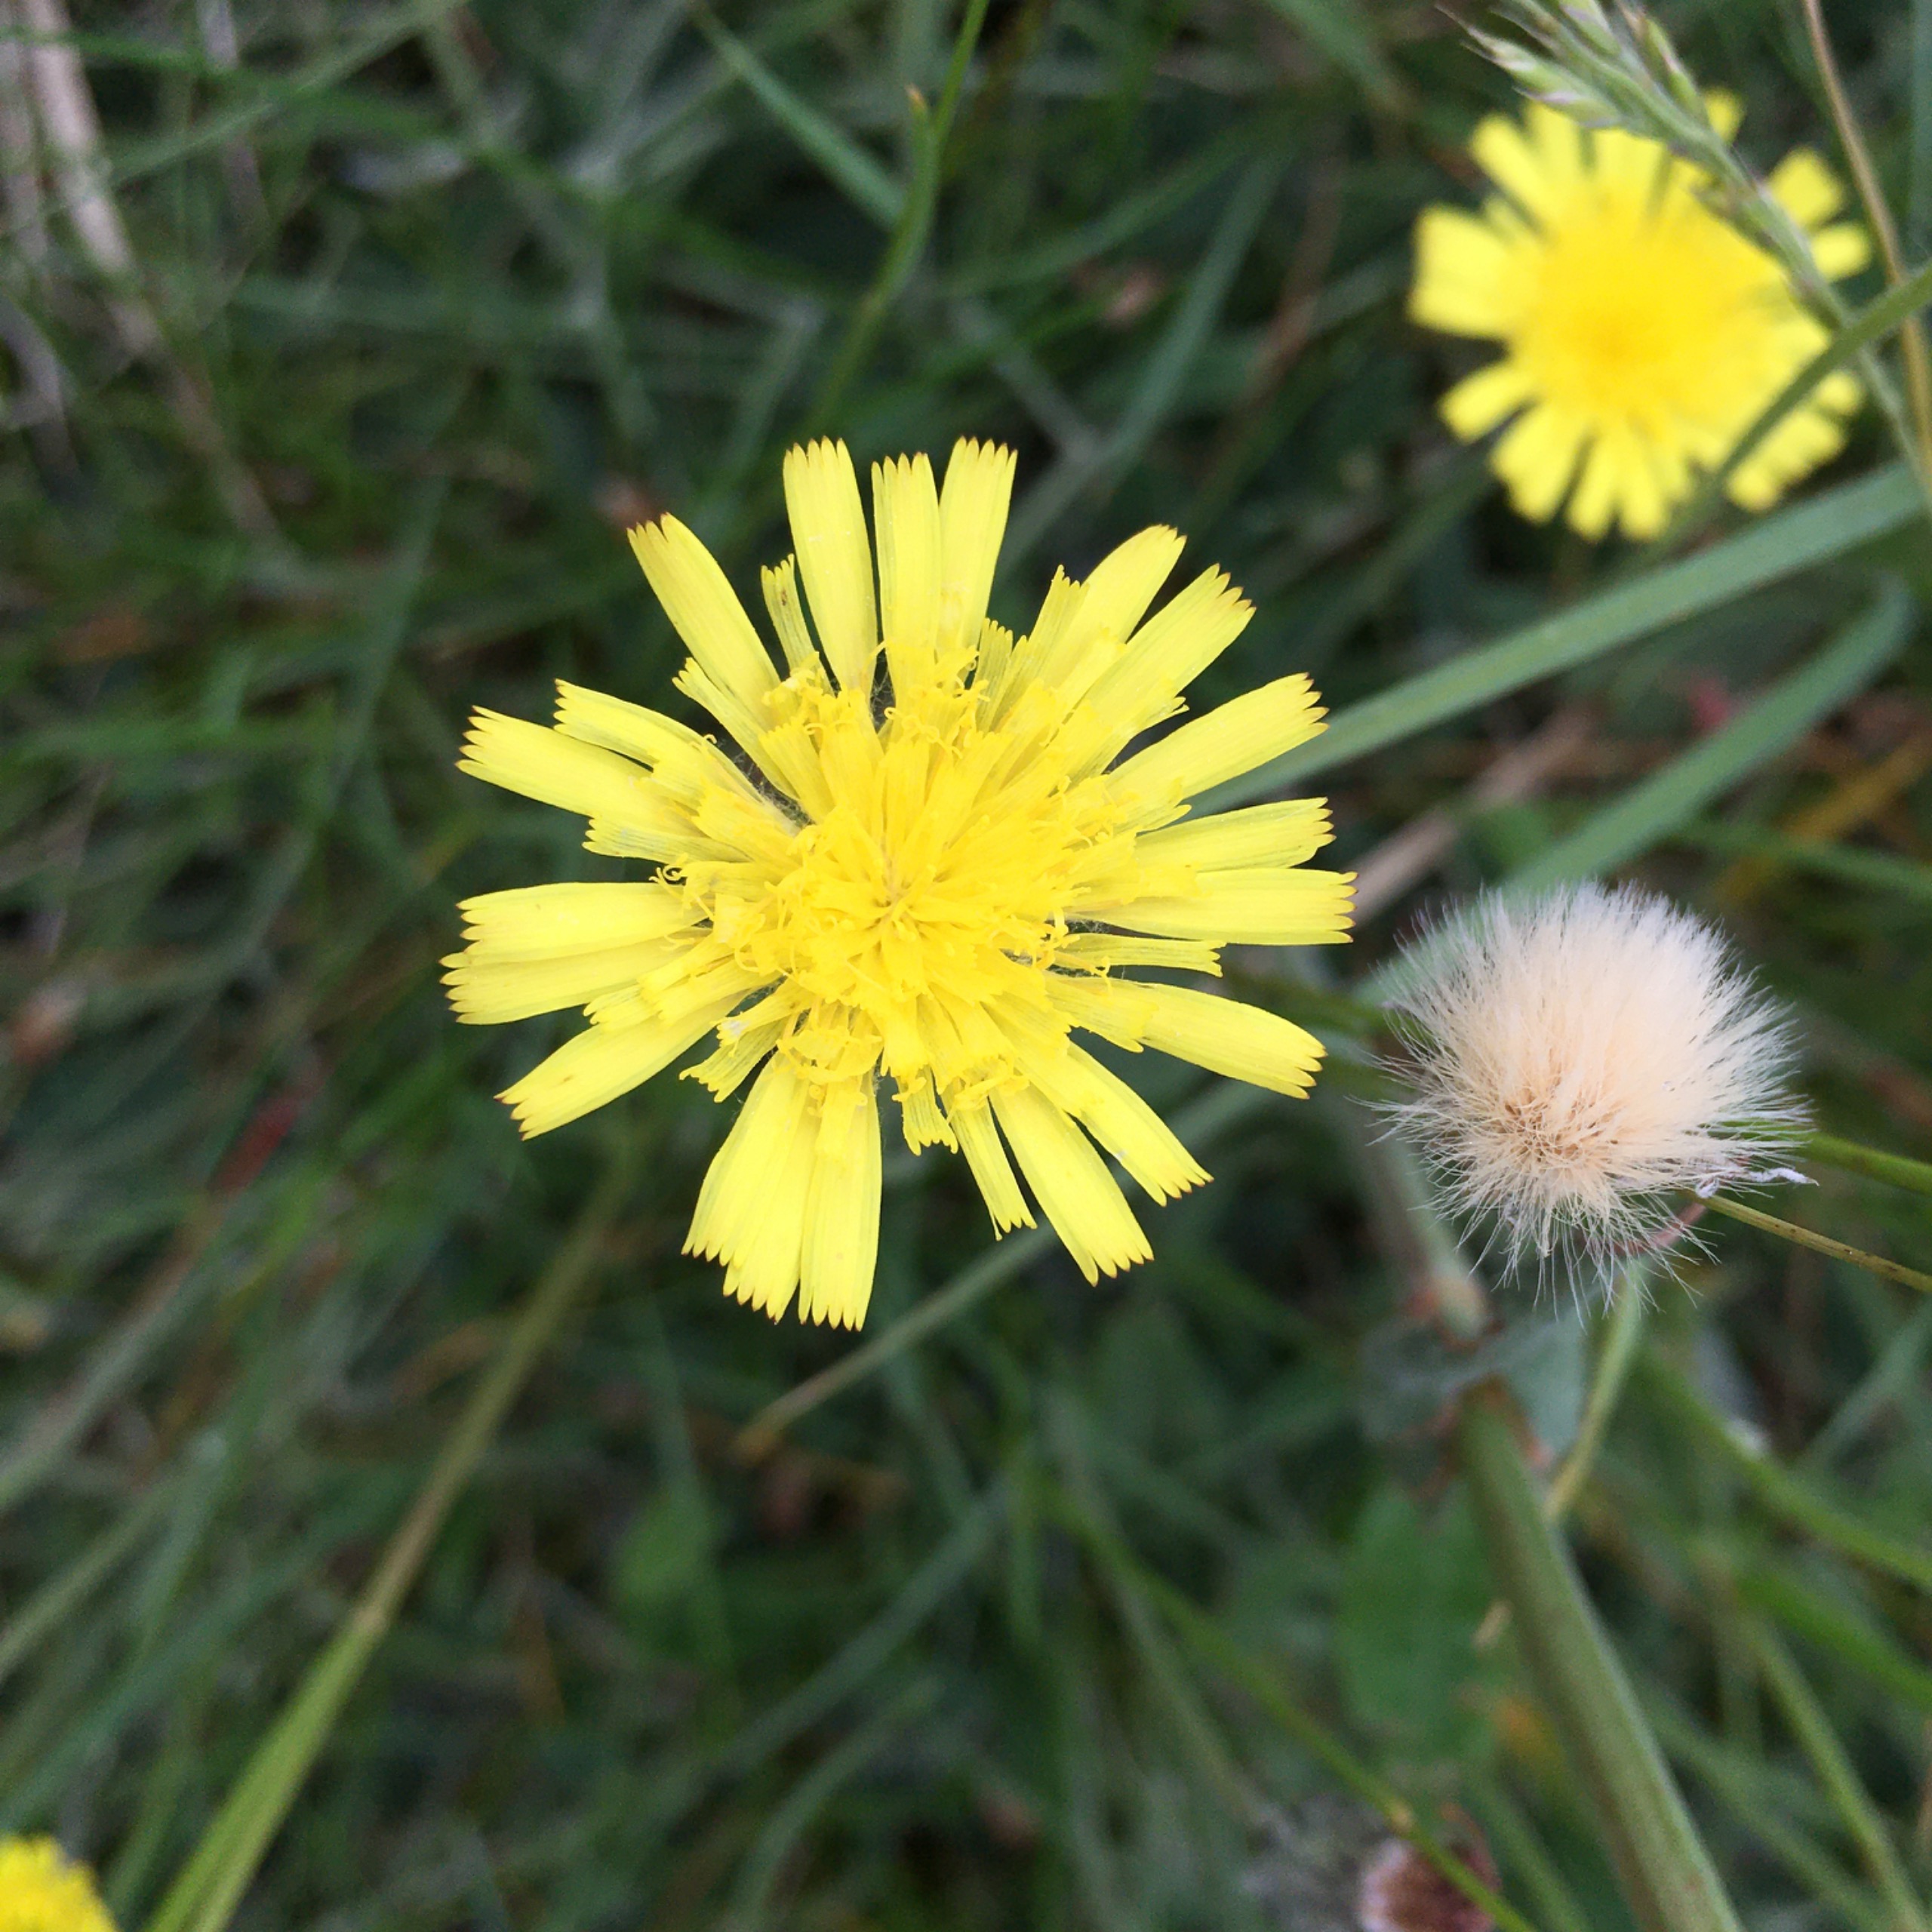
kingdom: Plantae
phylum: Tracheophyta
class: Magnoliopsida
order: Asterales
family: Asteraceae
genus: Pilosella
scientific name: Pilosella officinarum
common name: Håret høgeurt
